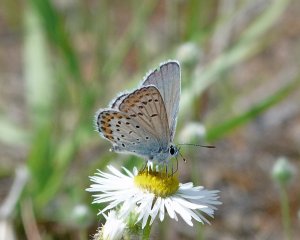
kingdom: Animalia
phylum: Arthropoda
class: Insecta
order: Lepidoptera
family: Lycaenidae
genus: Lycaeides
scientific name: Lycaeides melissa
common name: Melissa Blue
